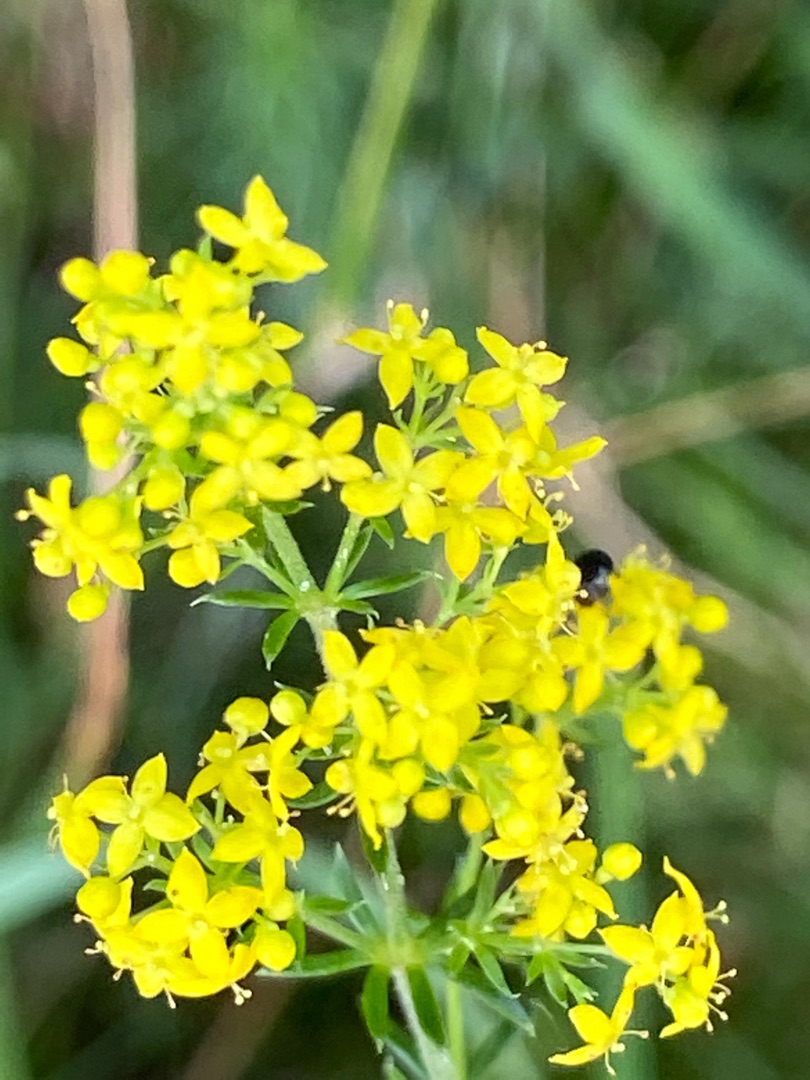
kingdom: Plantae
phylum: Tracheophyta
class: Magnoliopsida
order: Gentianales
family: Rubiaceae
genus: Galium
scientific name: Galium verum
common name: Gul snerre
